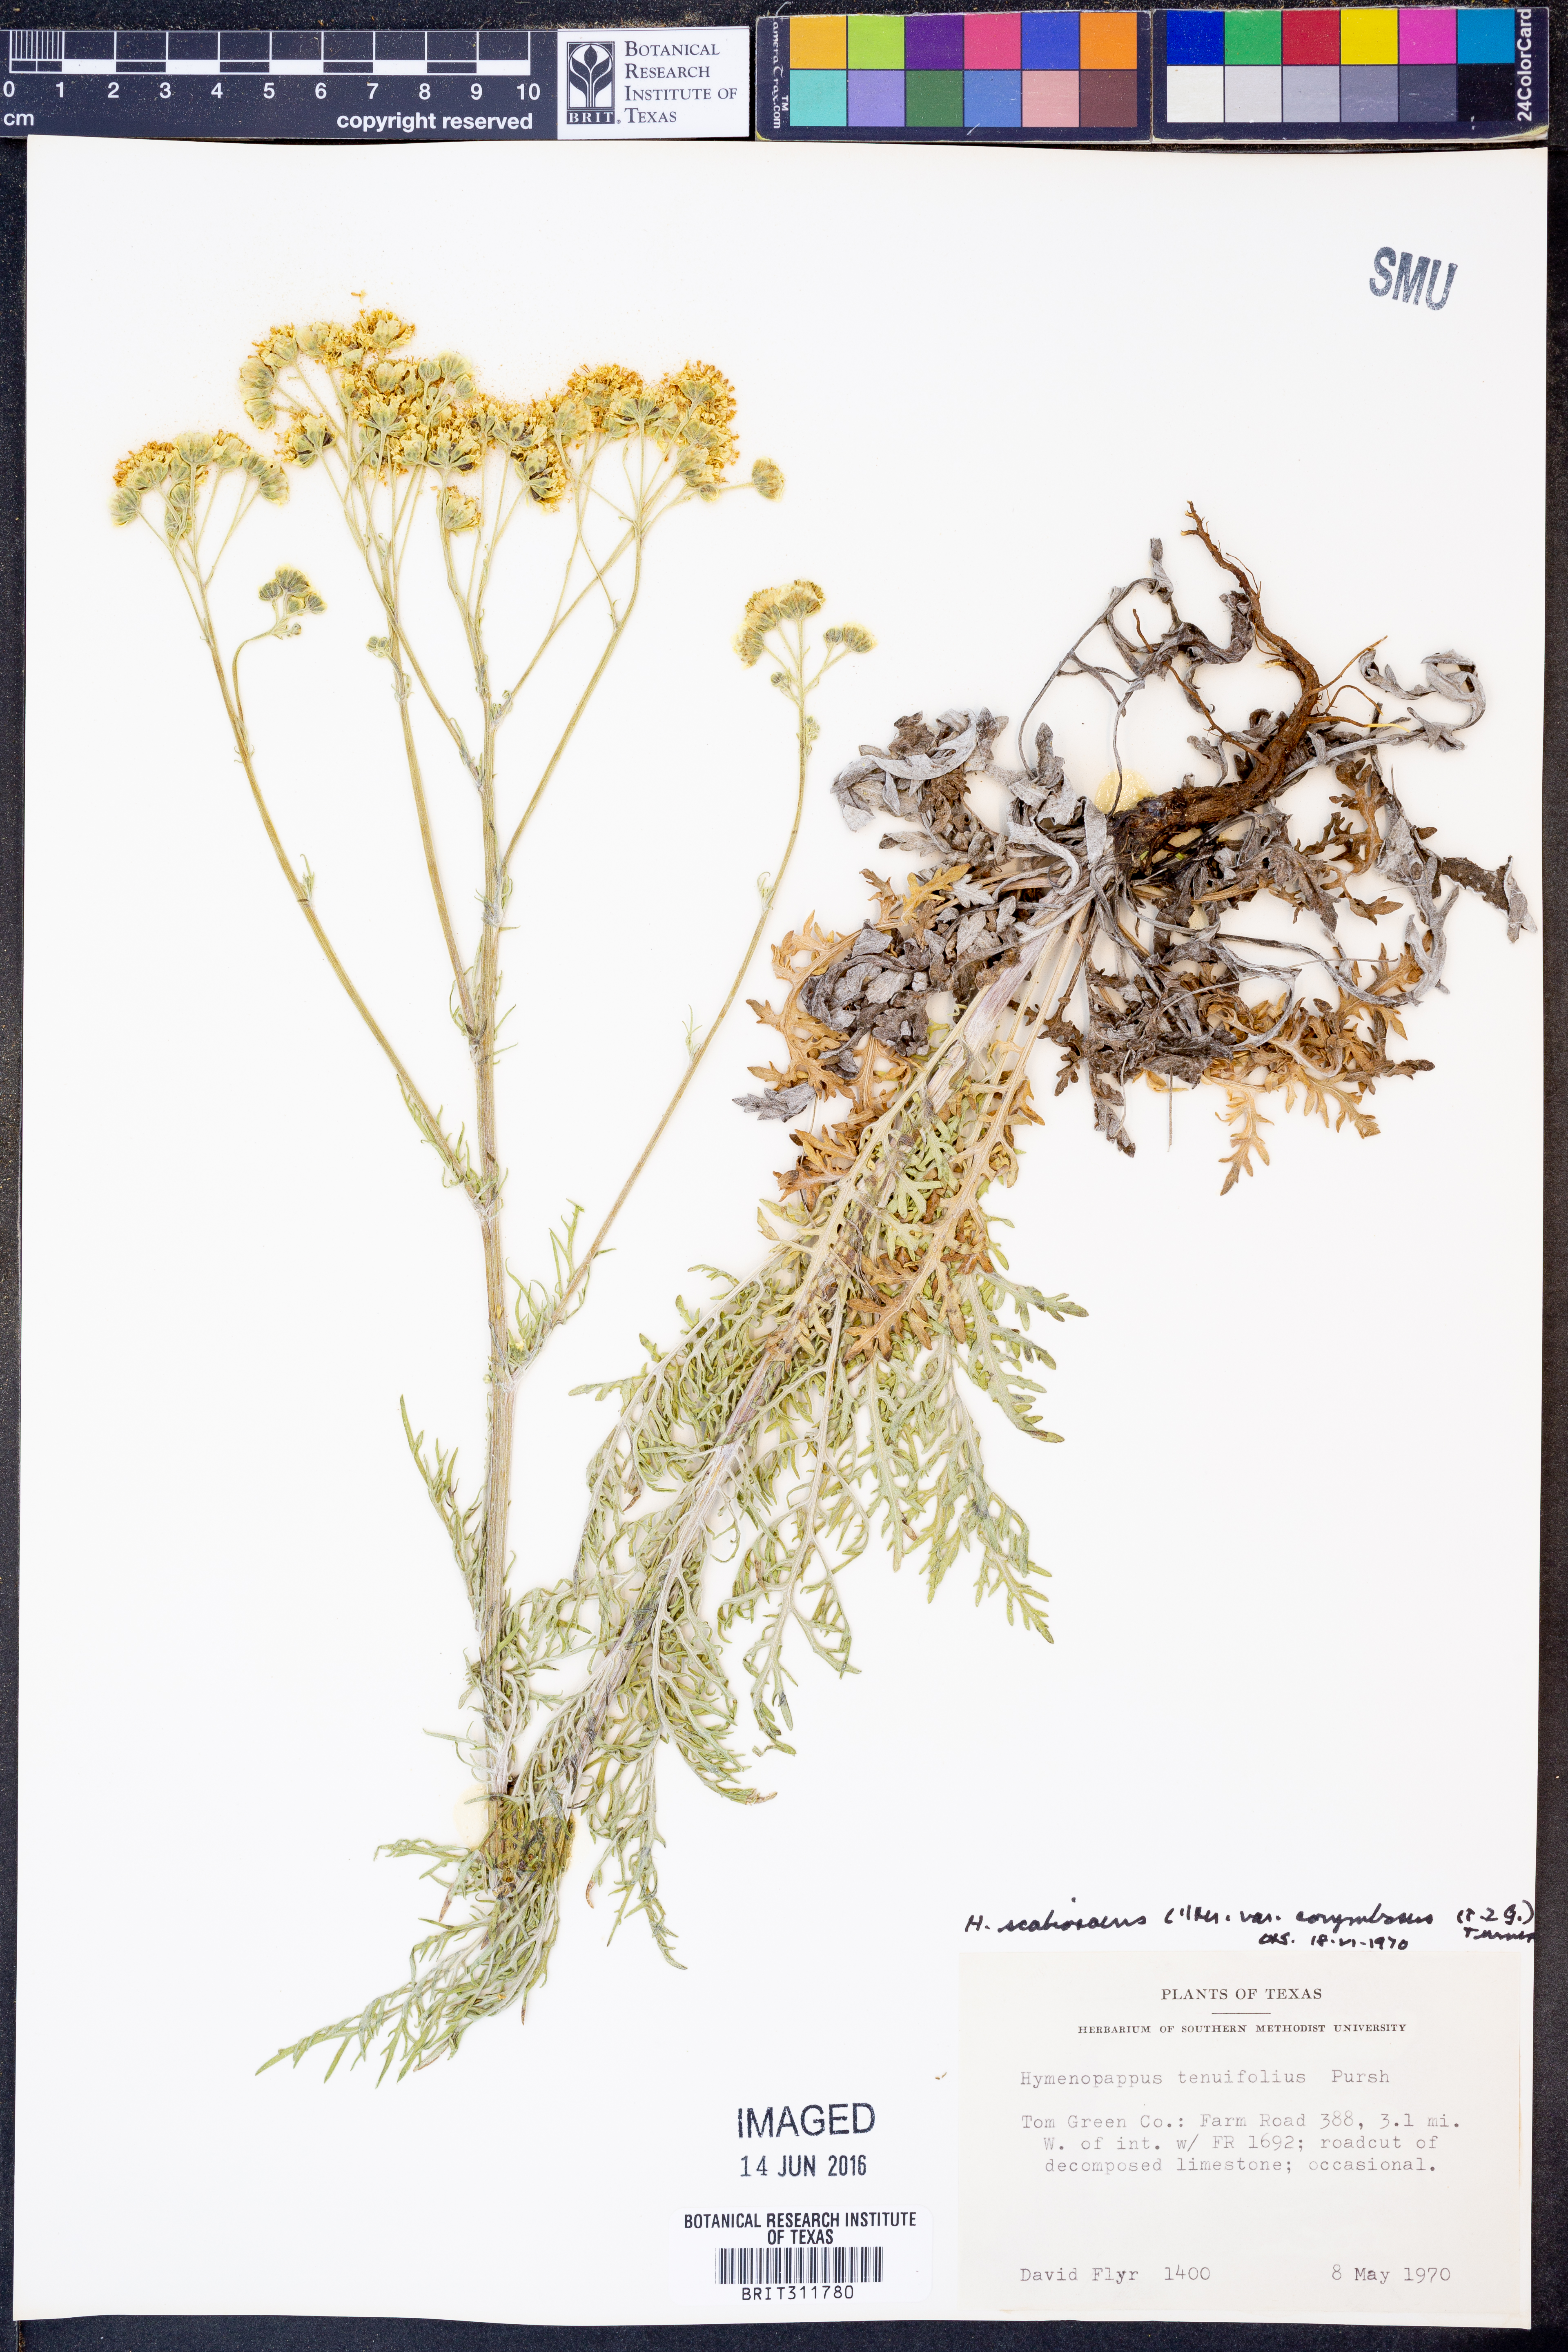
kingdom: Plantae
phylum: Tracheophyta
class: Magnoliopsida
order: Asterales
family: Asteraceae
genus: Hymenopappus
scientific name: Hymenopappus scabiosaeus
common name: Carolina woollywhite
